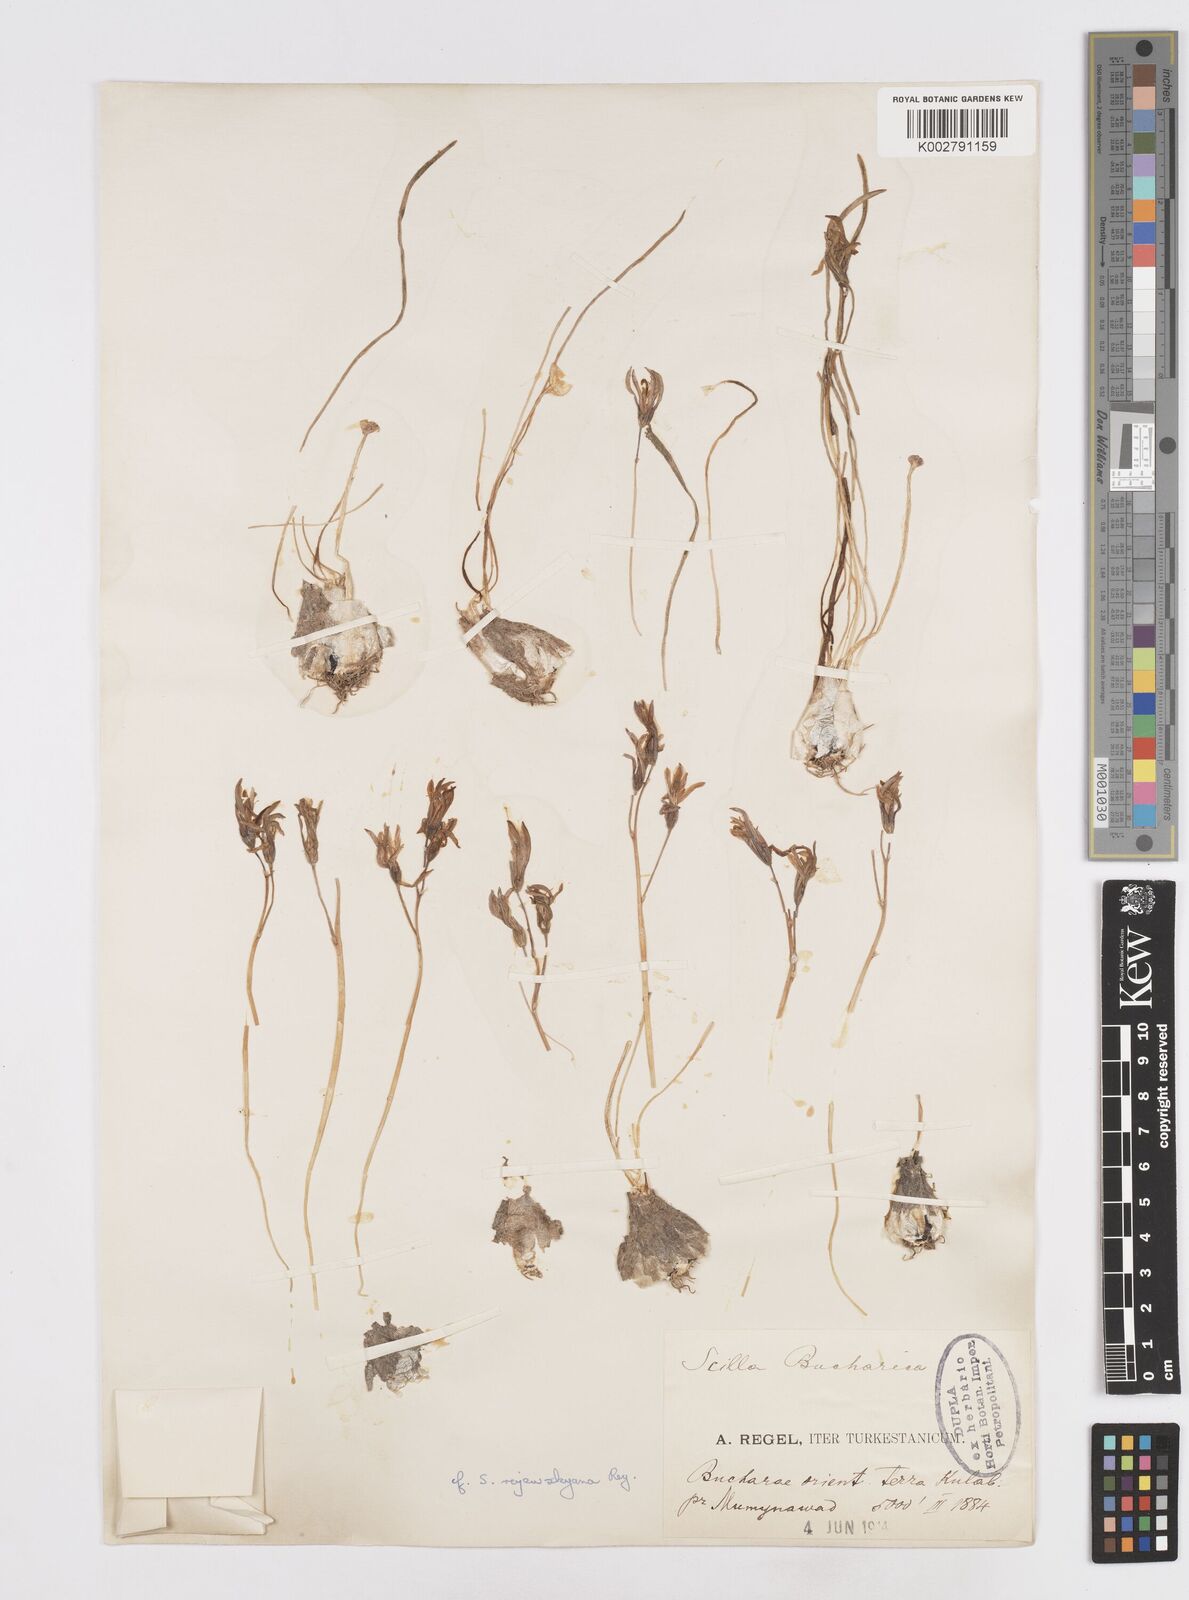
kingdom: Plantae
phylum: Tracheophyta
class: Liliopsida
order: Asparagales
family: Asparagaceae
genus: Fessia
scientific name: Fessia raewskiana
